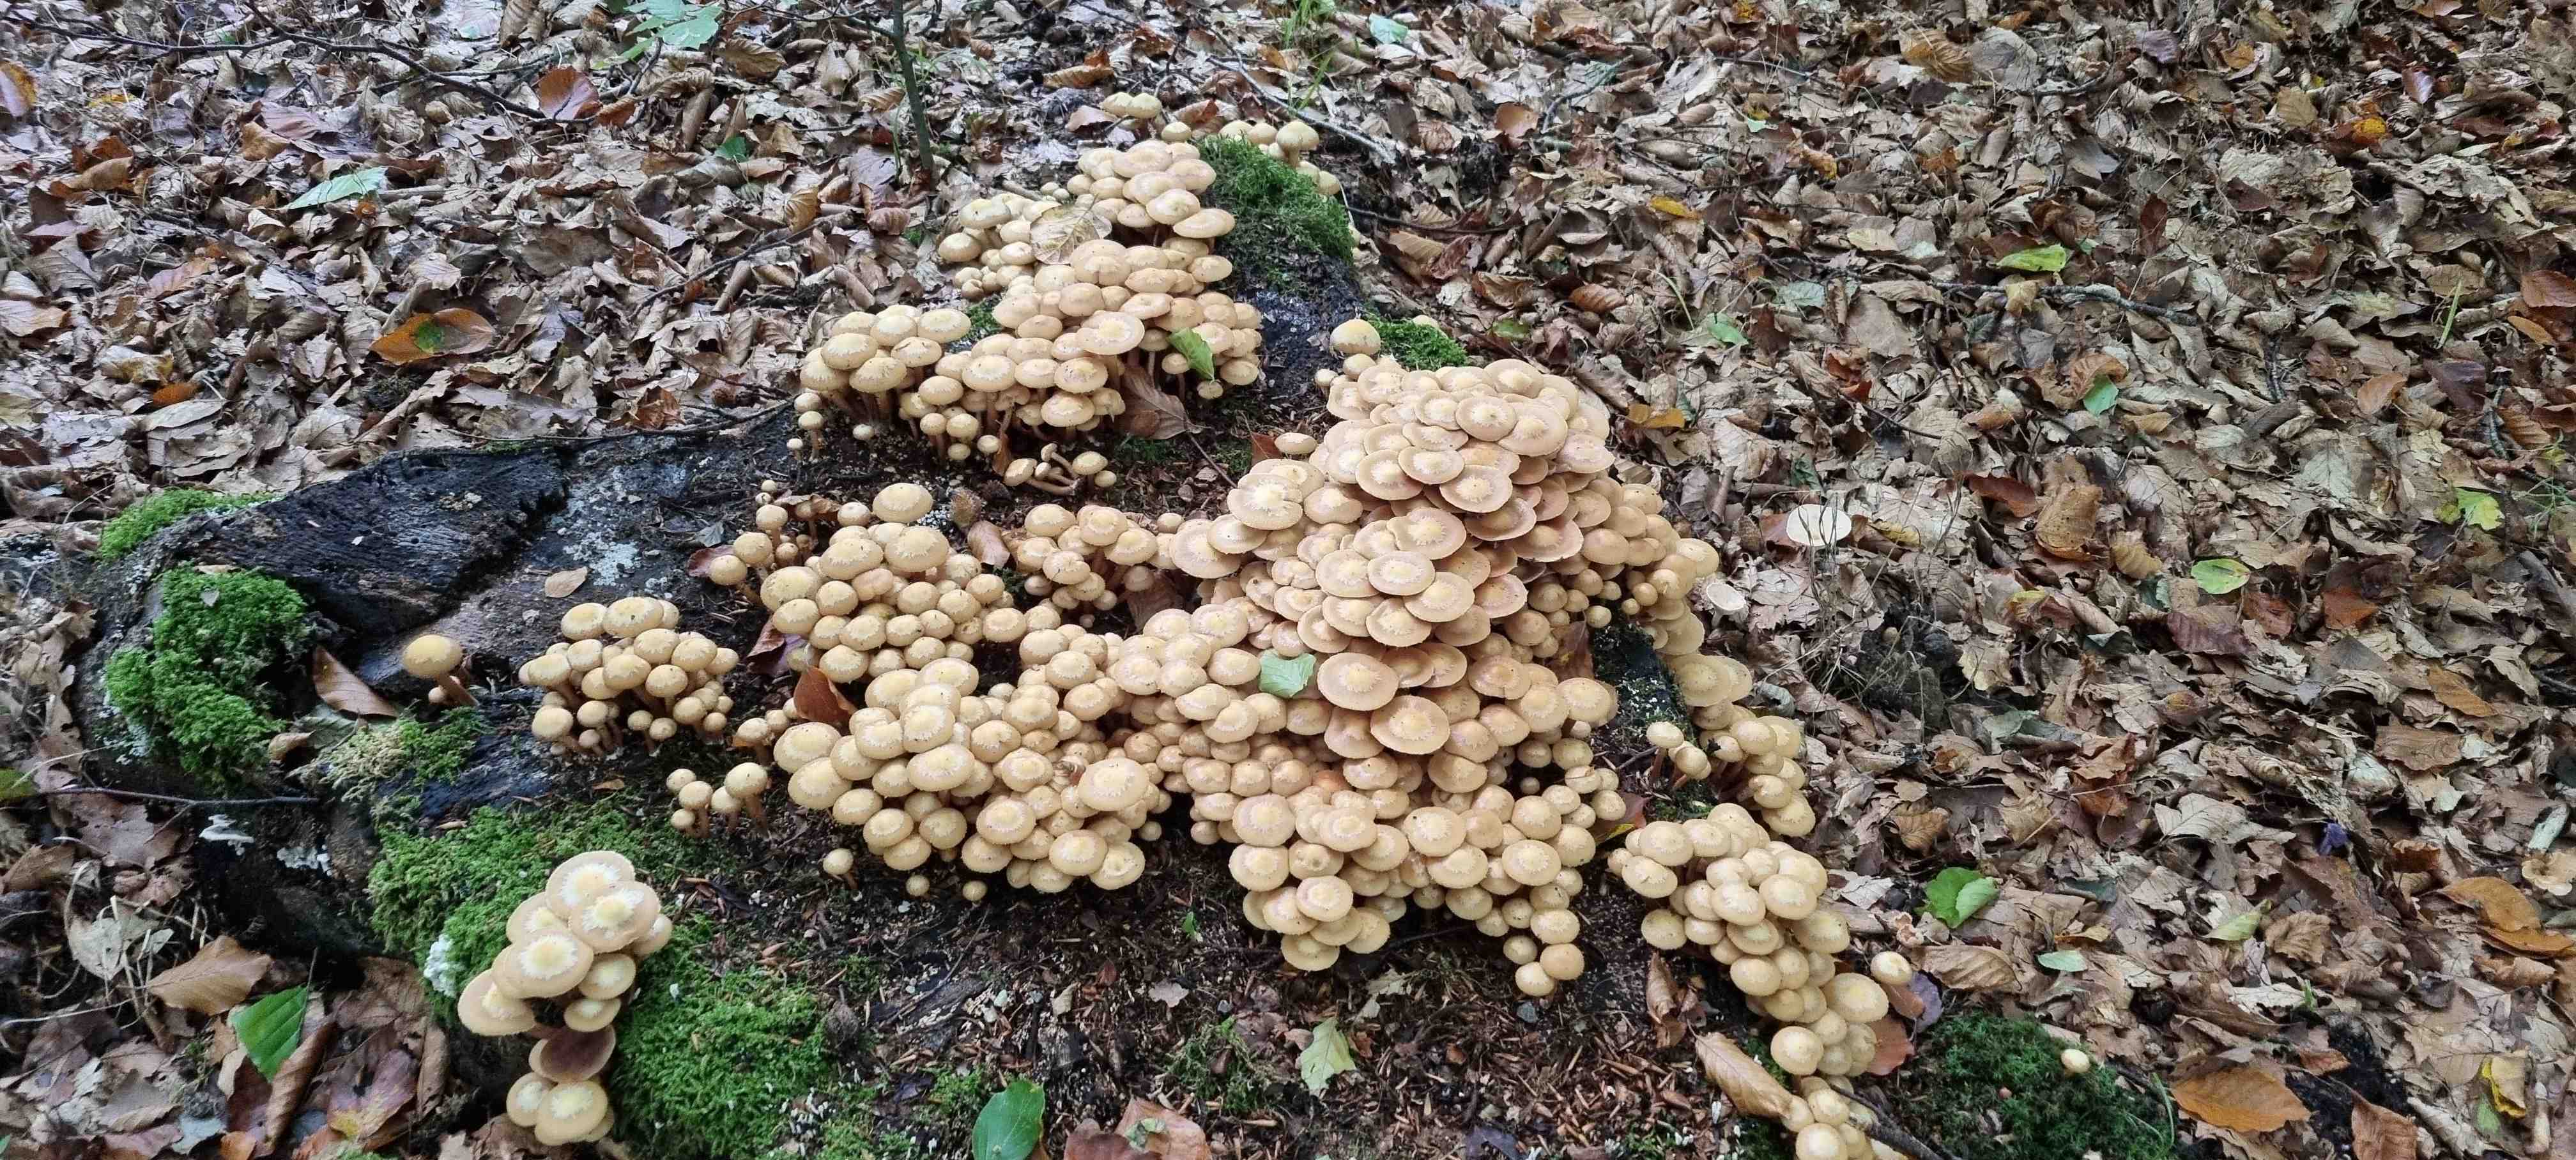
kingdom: Fungi
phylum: Basidiomycota
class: Agaricomycetes
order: Agaricales
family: Strophariaceae
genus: Kuehneromyces
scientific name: Kuehneromyces mutabilis
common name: foranderlig skælhat
